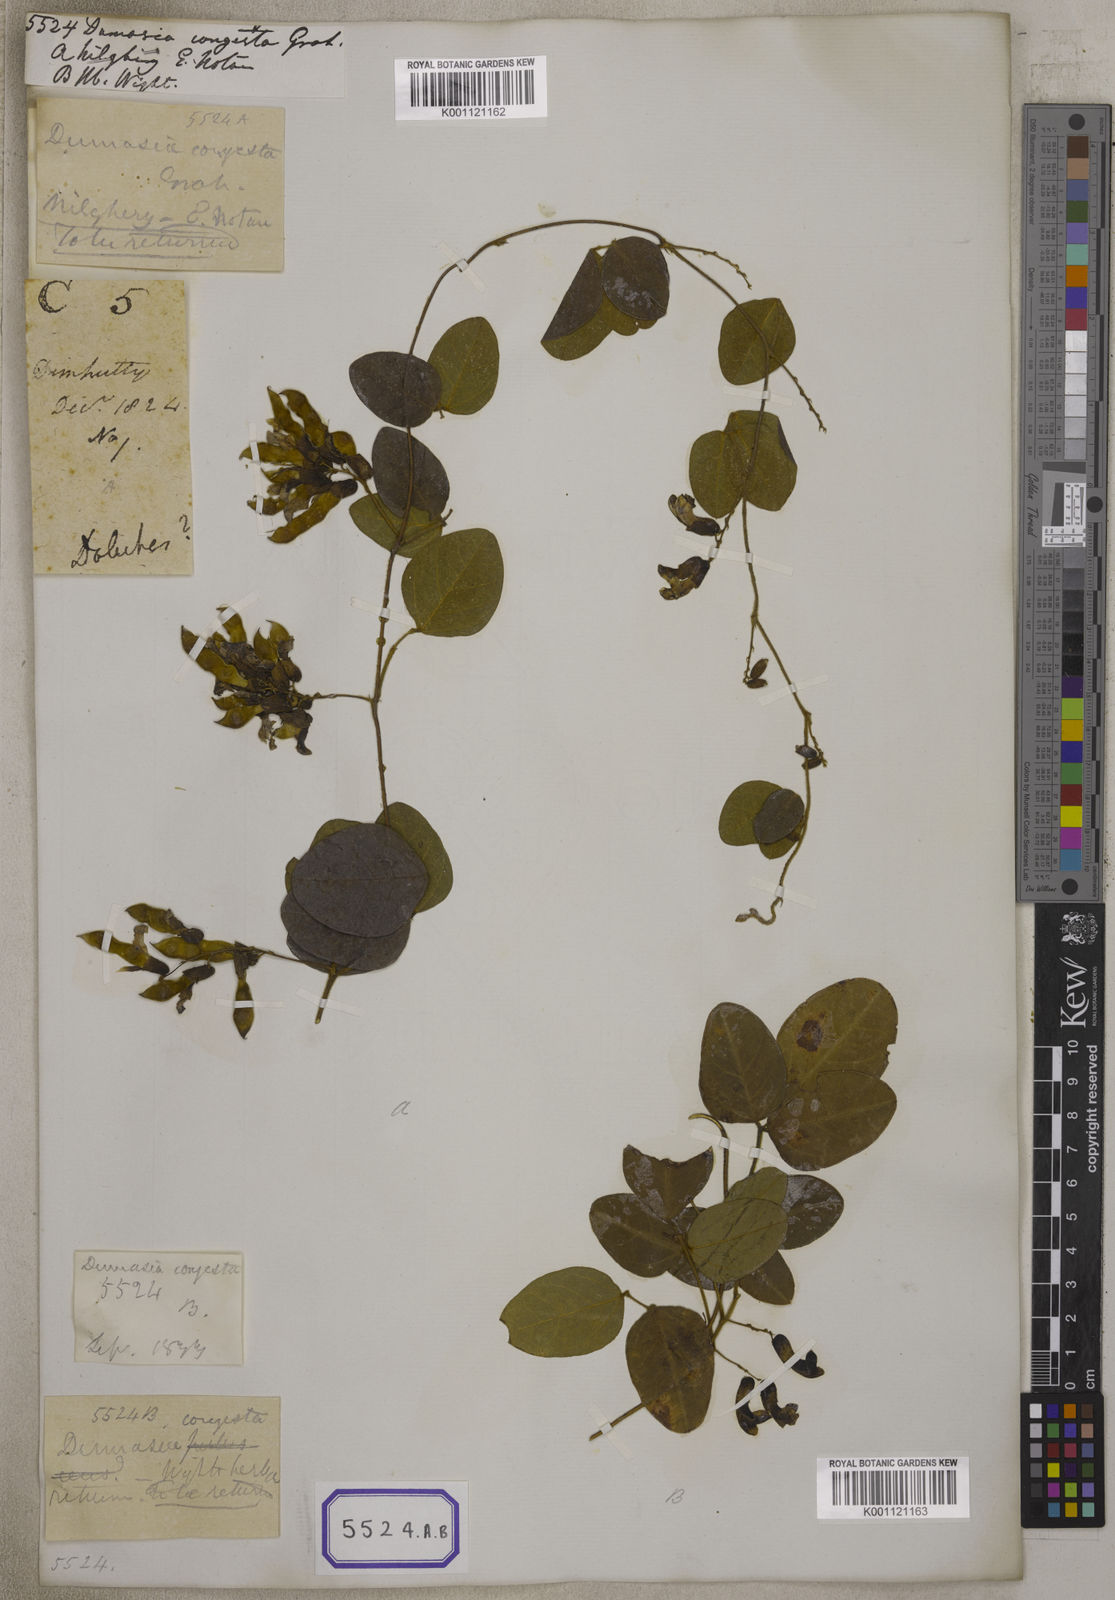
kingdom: Plantae
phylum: Tracheophyta
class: Magnoliopsida
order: Fabales
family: Fabaceae
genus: Dumasia
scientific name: Dumasia
